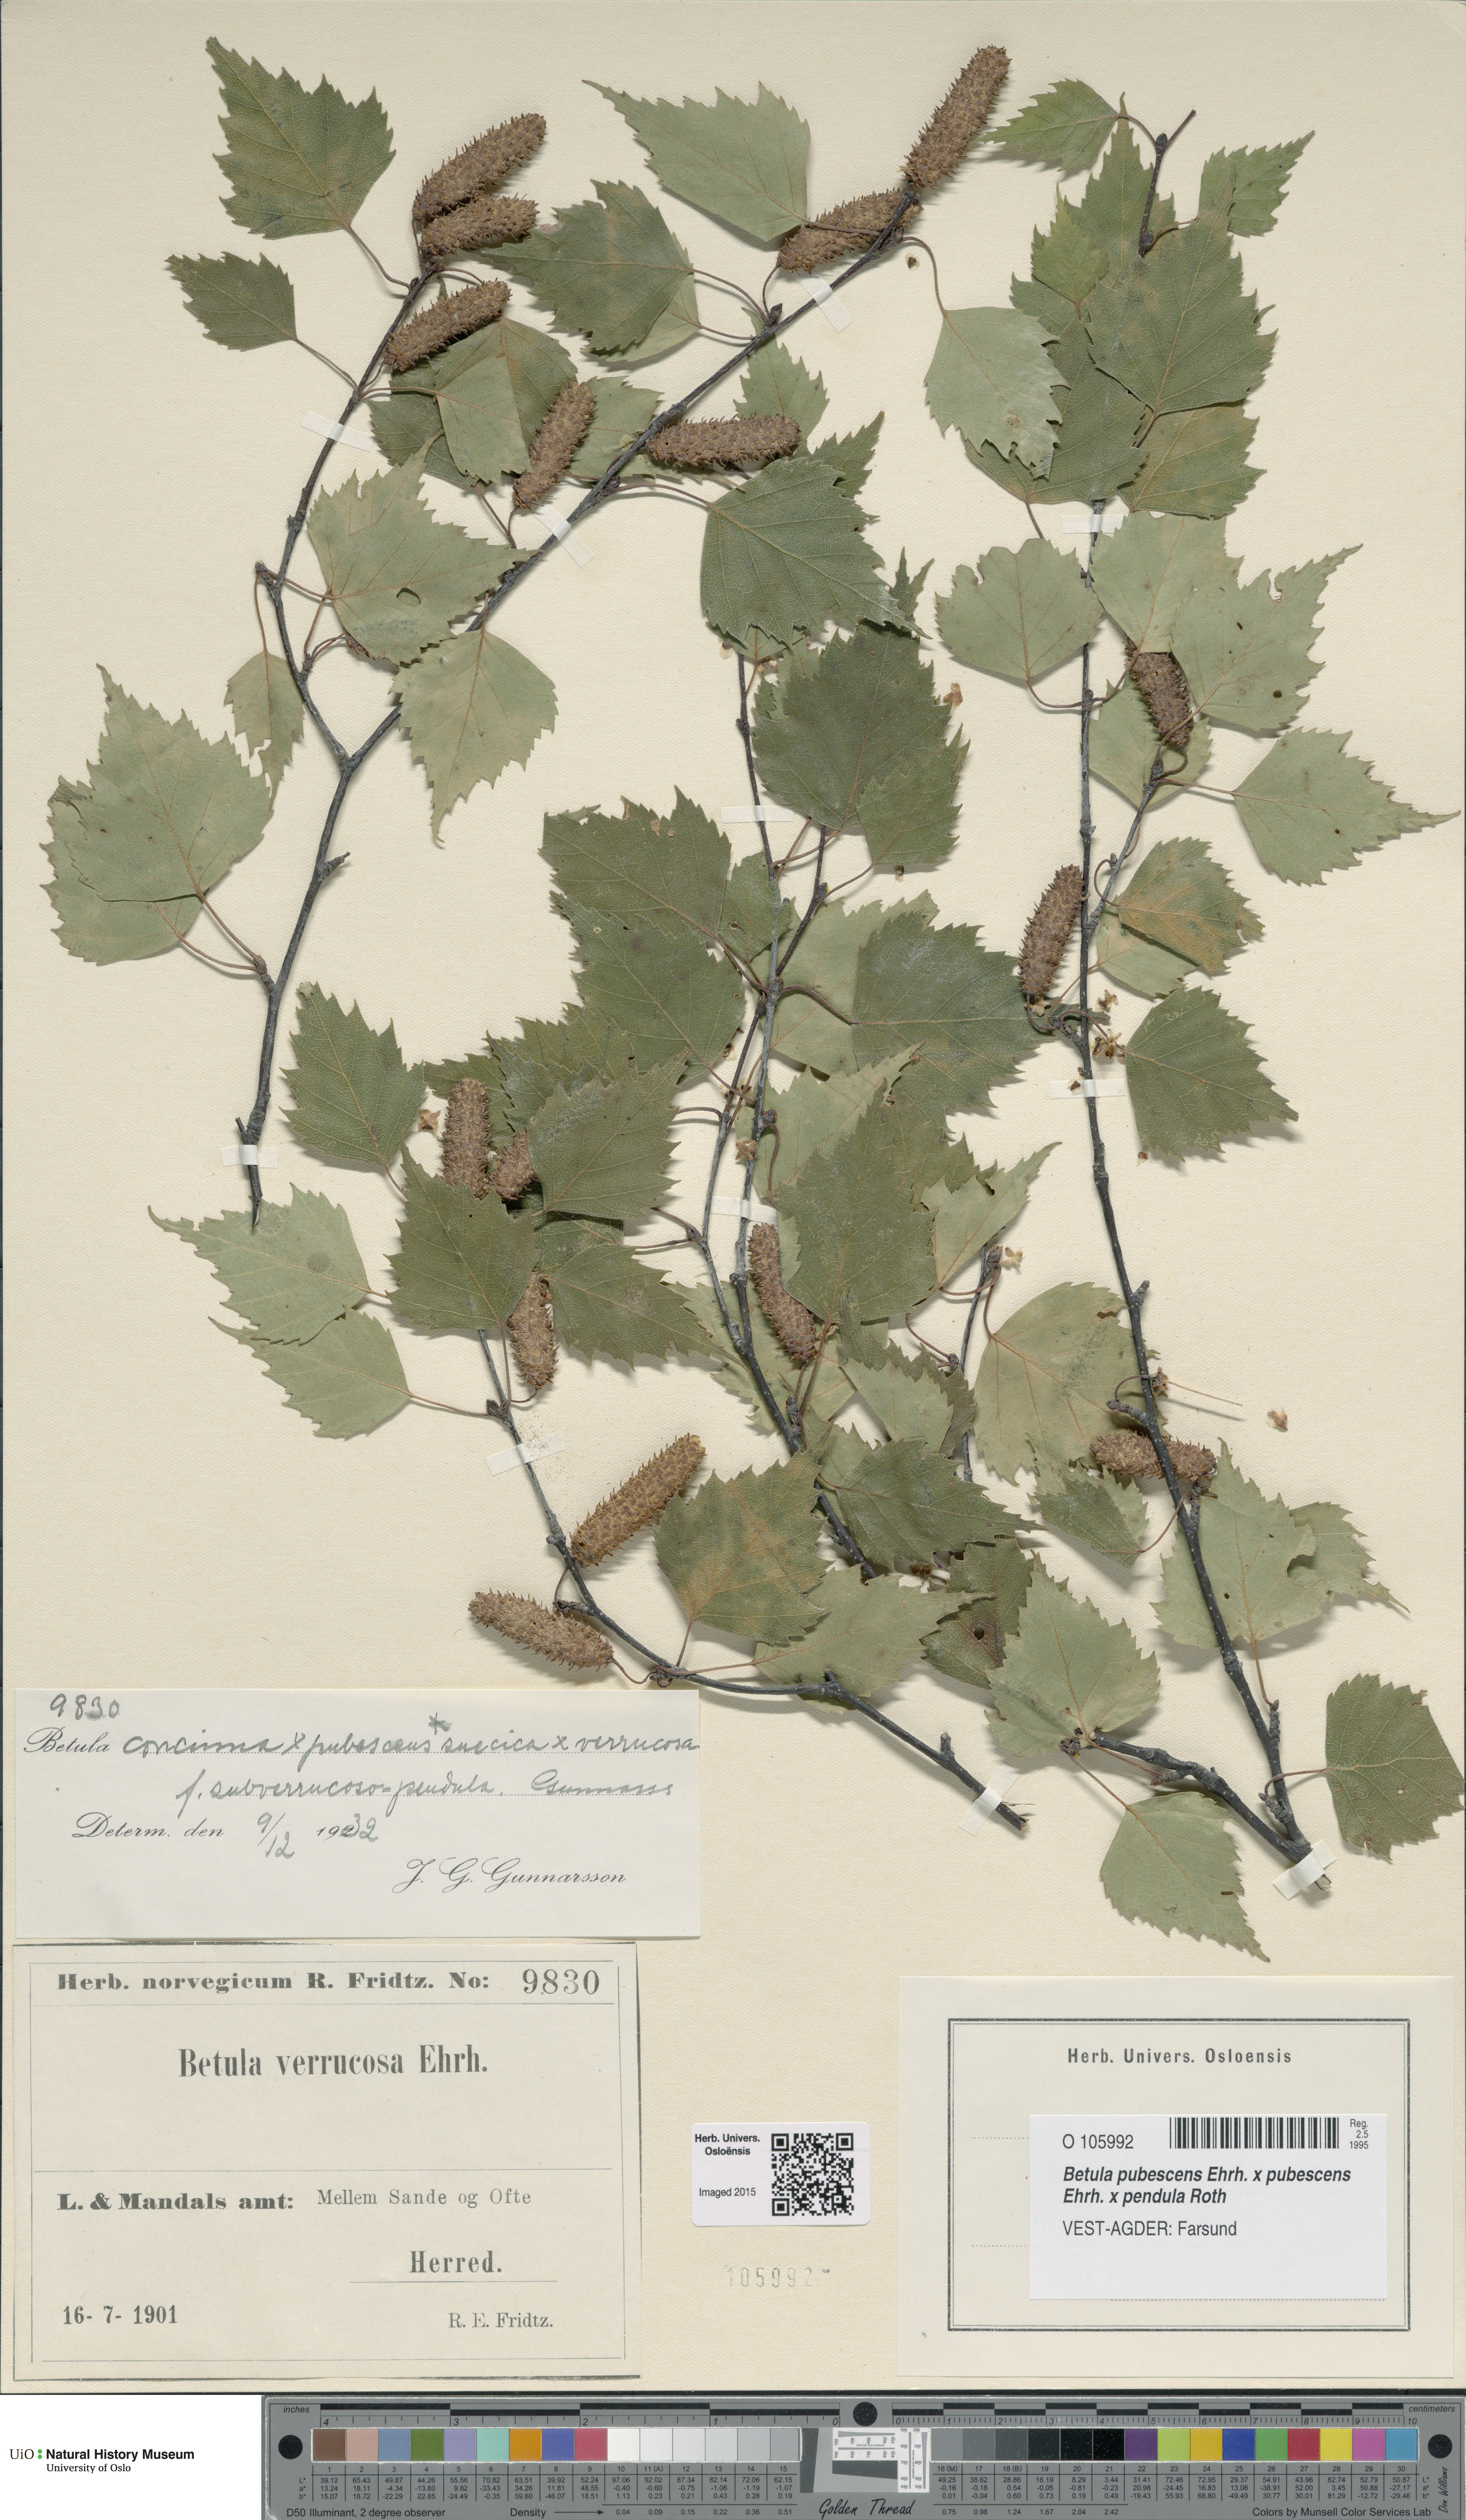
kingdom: Plantae
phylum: Tracheophyta
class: Magnoliopsida
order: Fagales
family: Betulaceae
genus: Betula
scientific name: Betula
